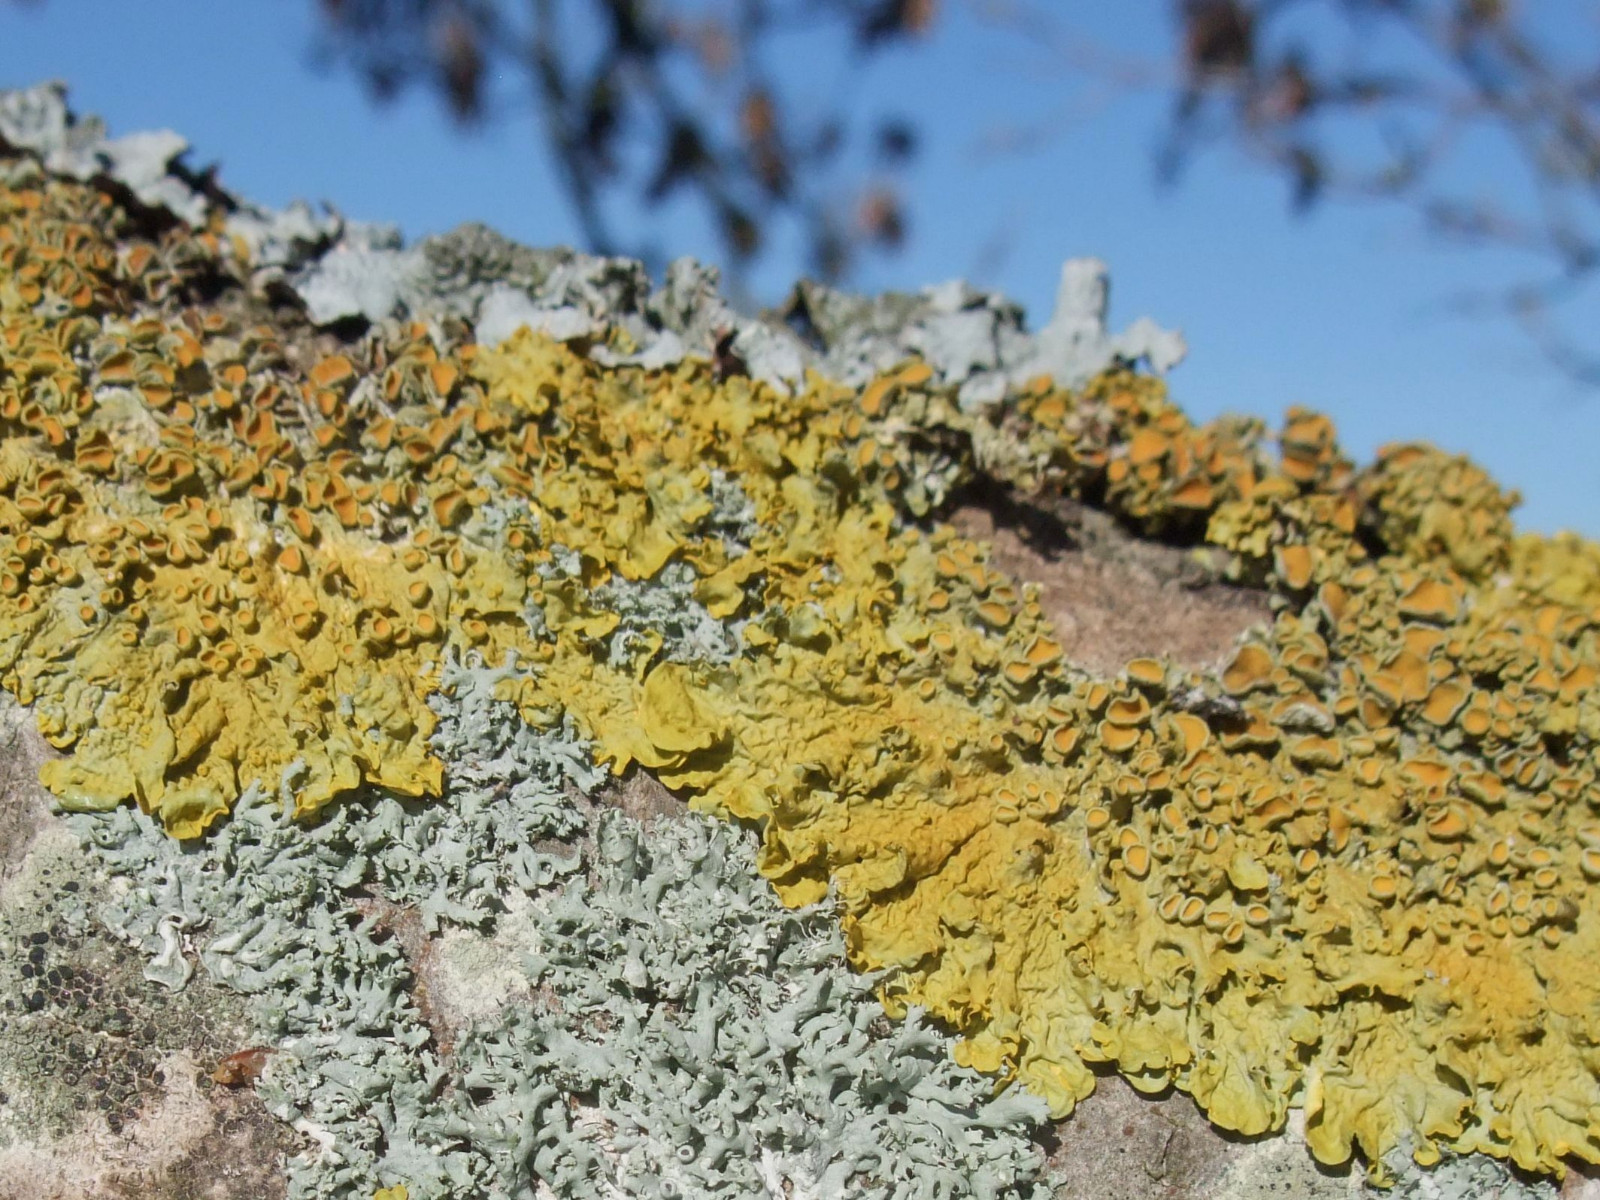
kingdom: Fungi
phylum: Ascomycota
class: Lecanoromycetes
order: Teloschistales
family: Teloschistaceae
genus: Xanthoria
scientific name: Xanthoria parietina
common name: almindelig væggelav
